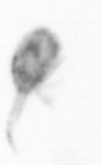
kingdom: Animalia
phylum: Arthropoda
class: Copepoda
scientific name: Copepoda
